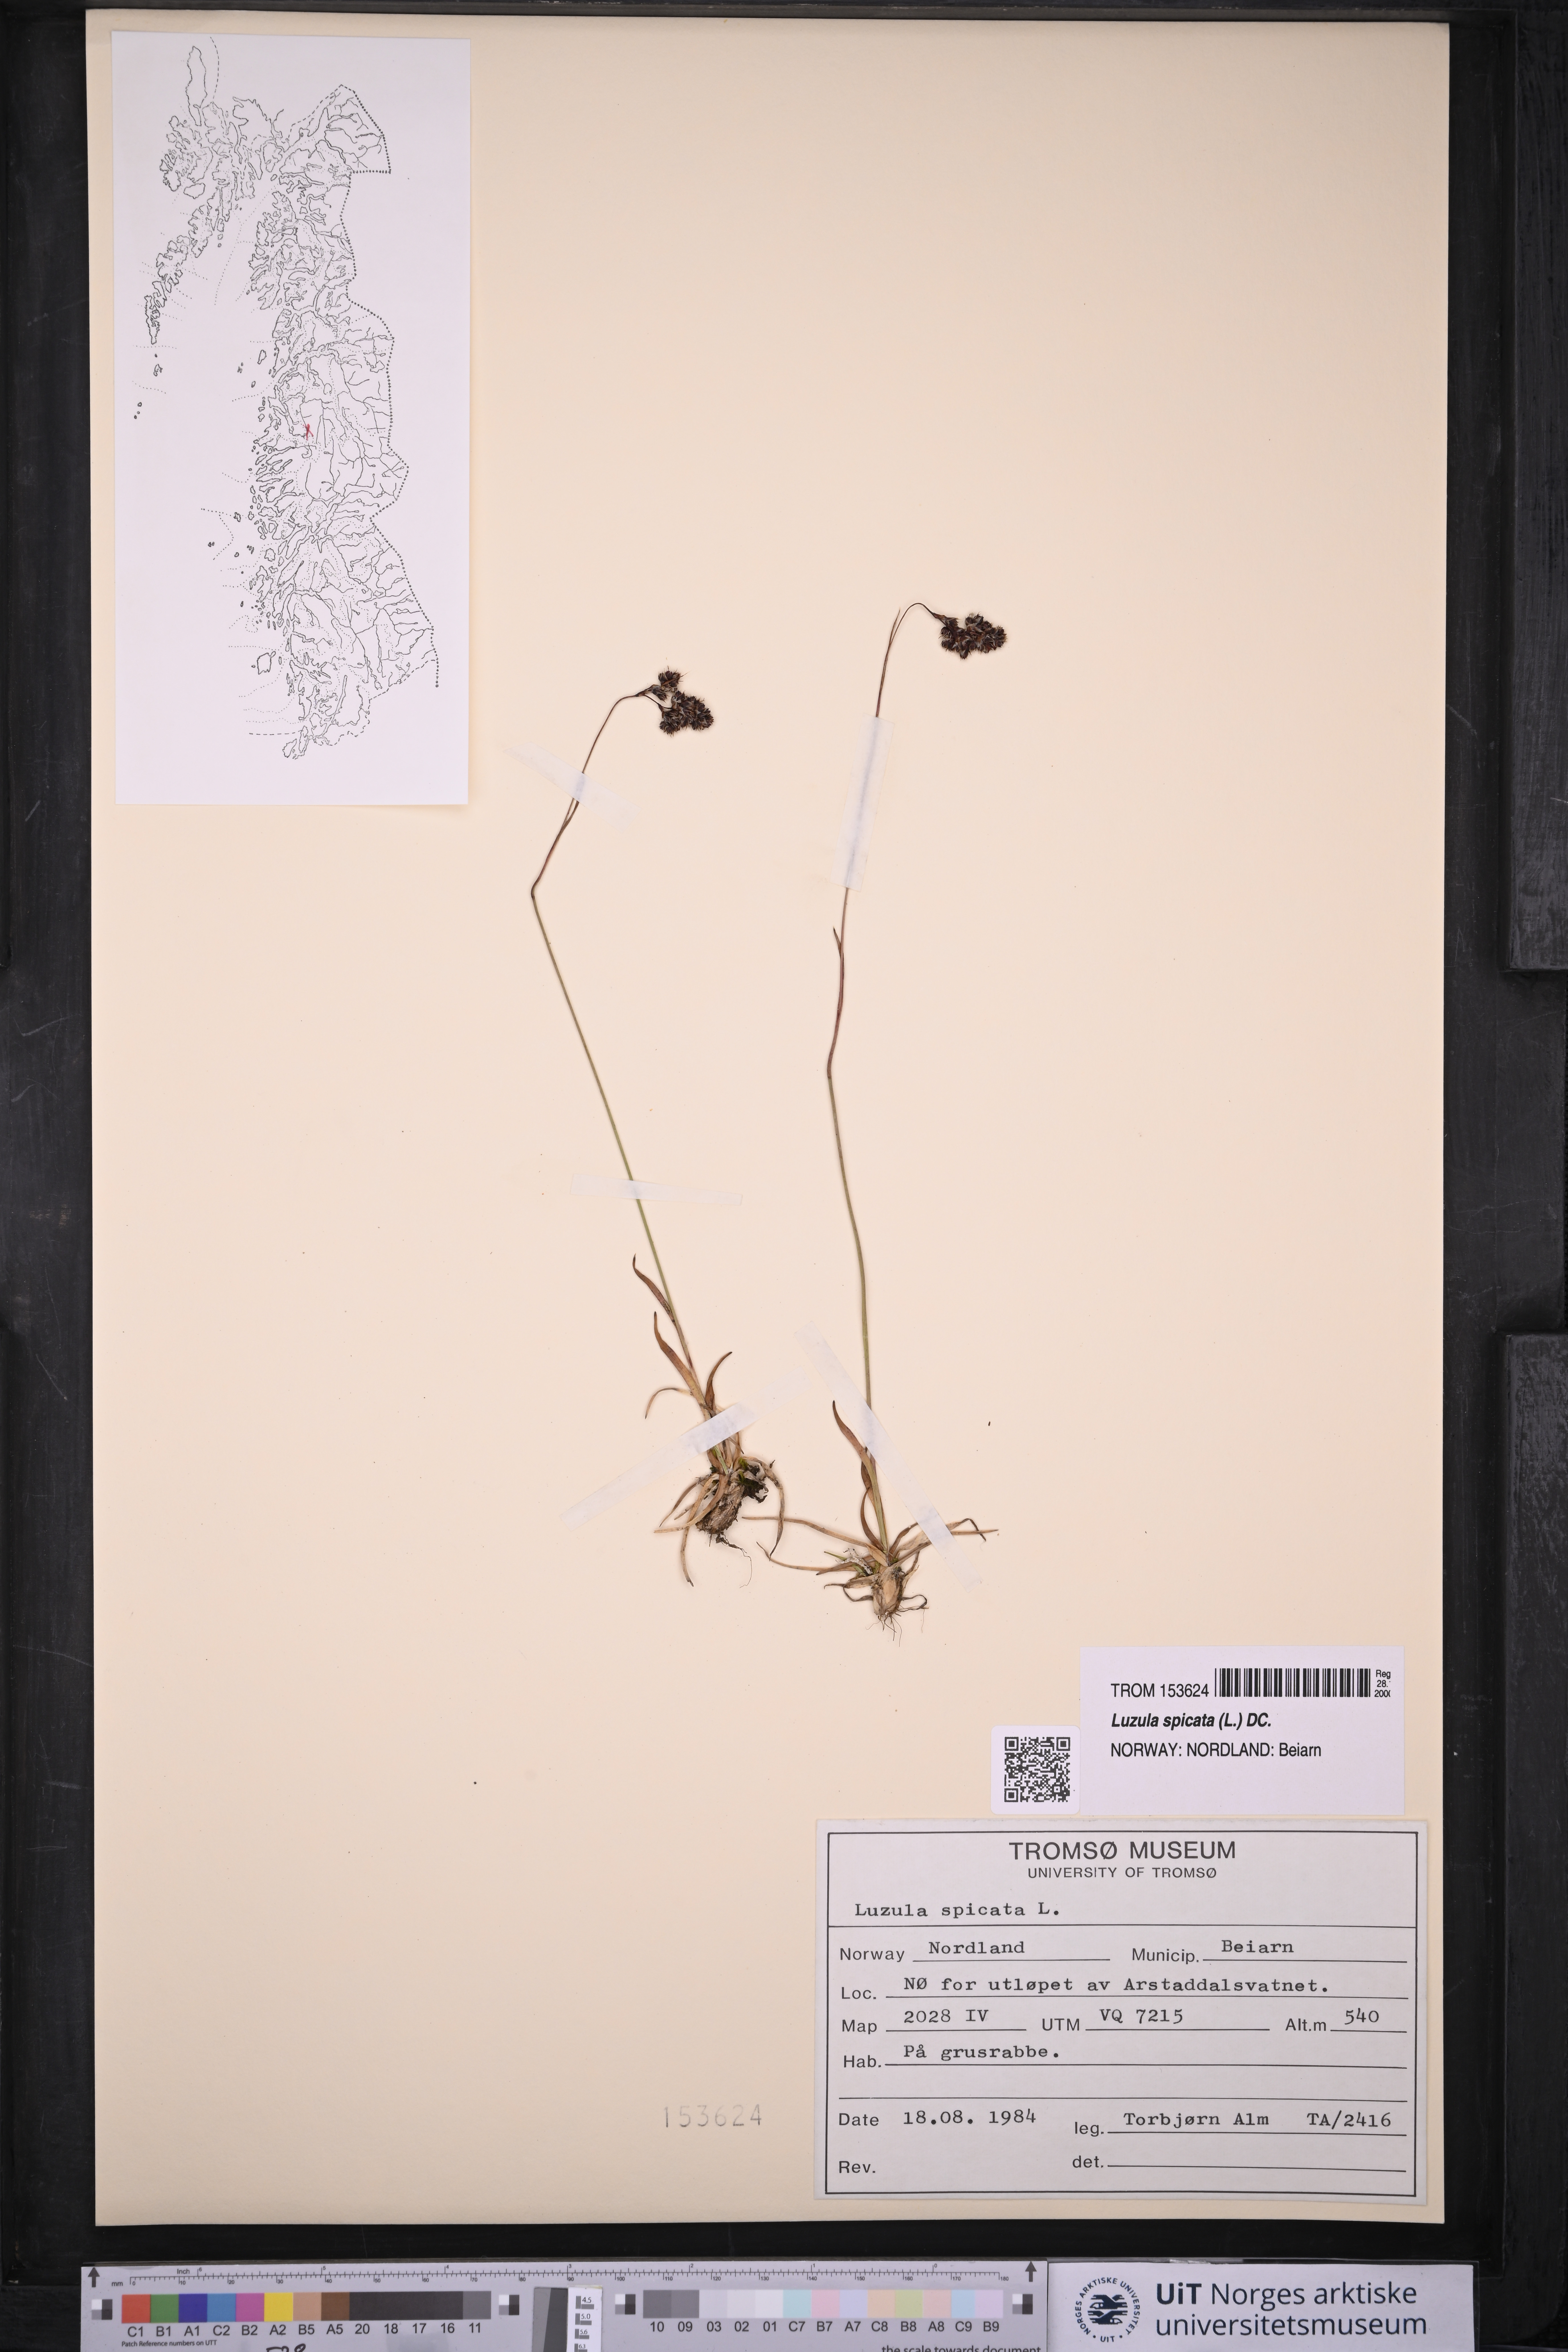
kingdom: Plantae
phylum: Tracheophyta
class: Liliopsida
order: Poales
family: Juncaceae
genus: Luzula
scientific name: Luzula spicata
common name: Spiked wood-rush
